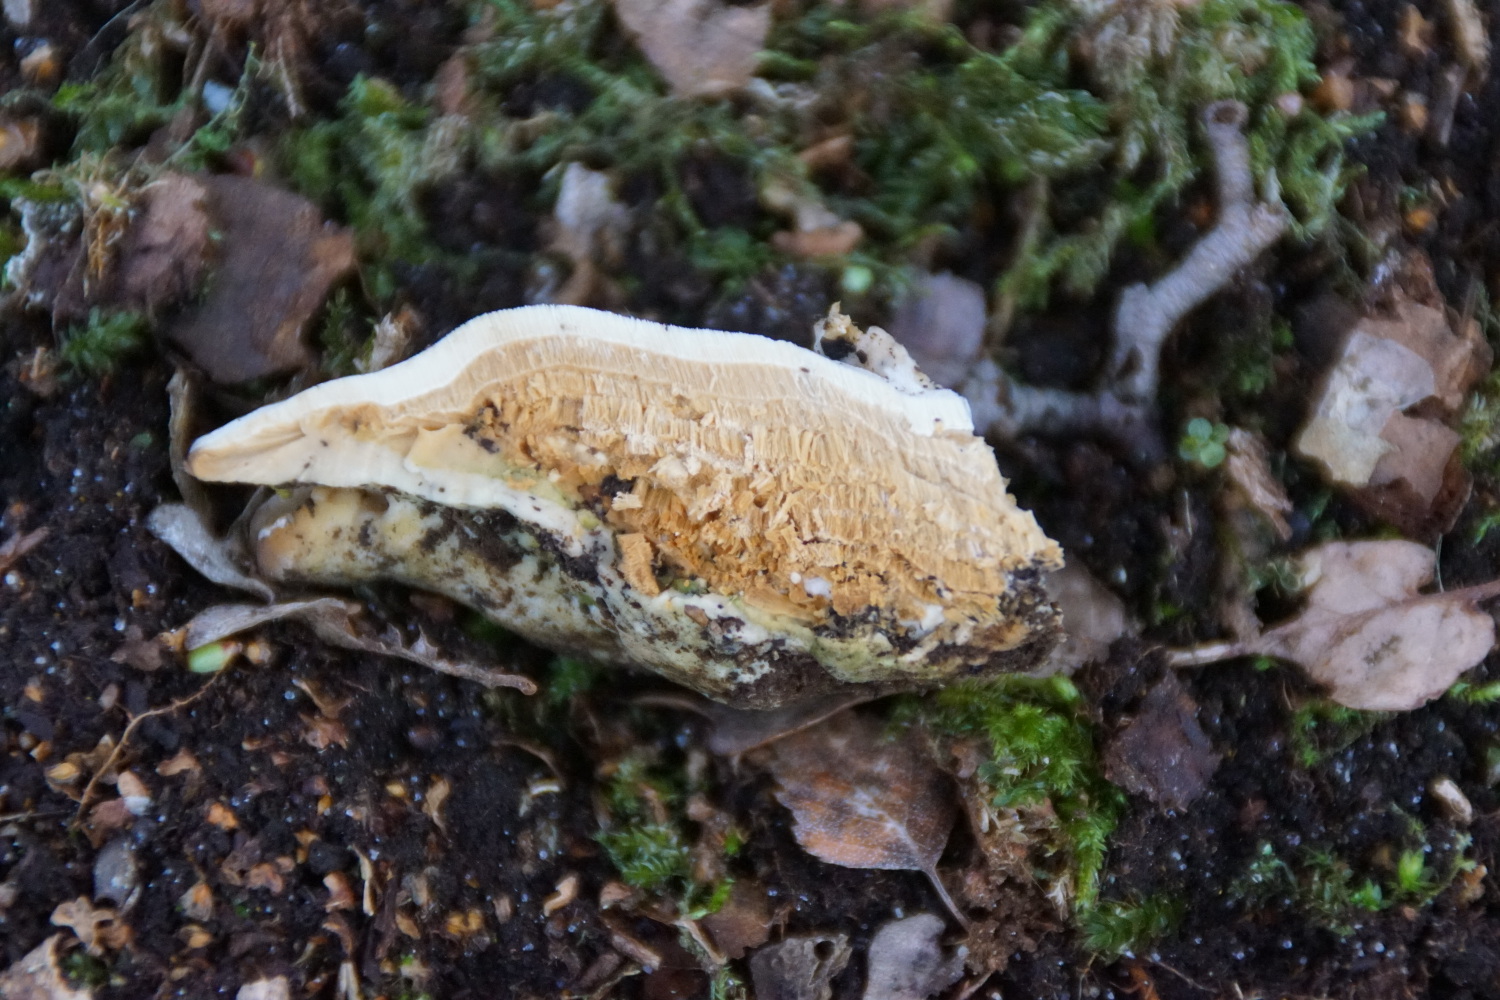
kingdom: Fungi
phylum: Basidiomycota
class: Agaricomycetes
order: Hymenochaetales
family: Oxyporaceae
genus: Oxyporus
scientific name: Oxyporus populinus
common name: sammenvokset trylleporesvamp
